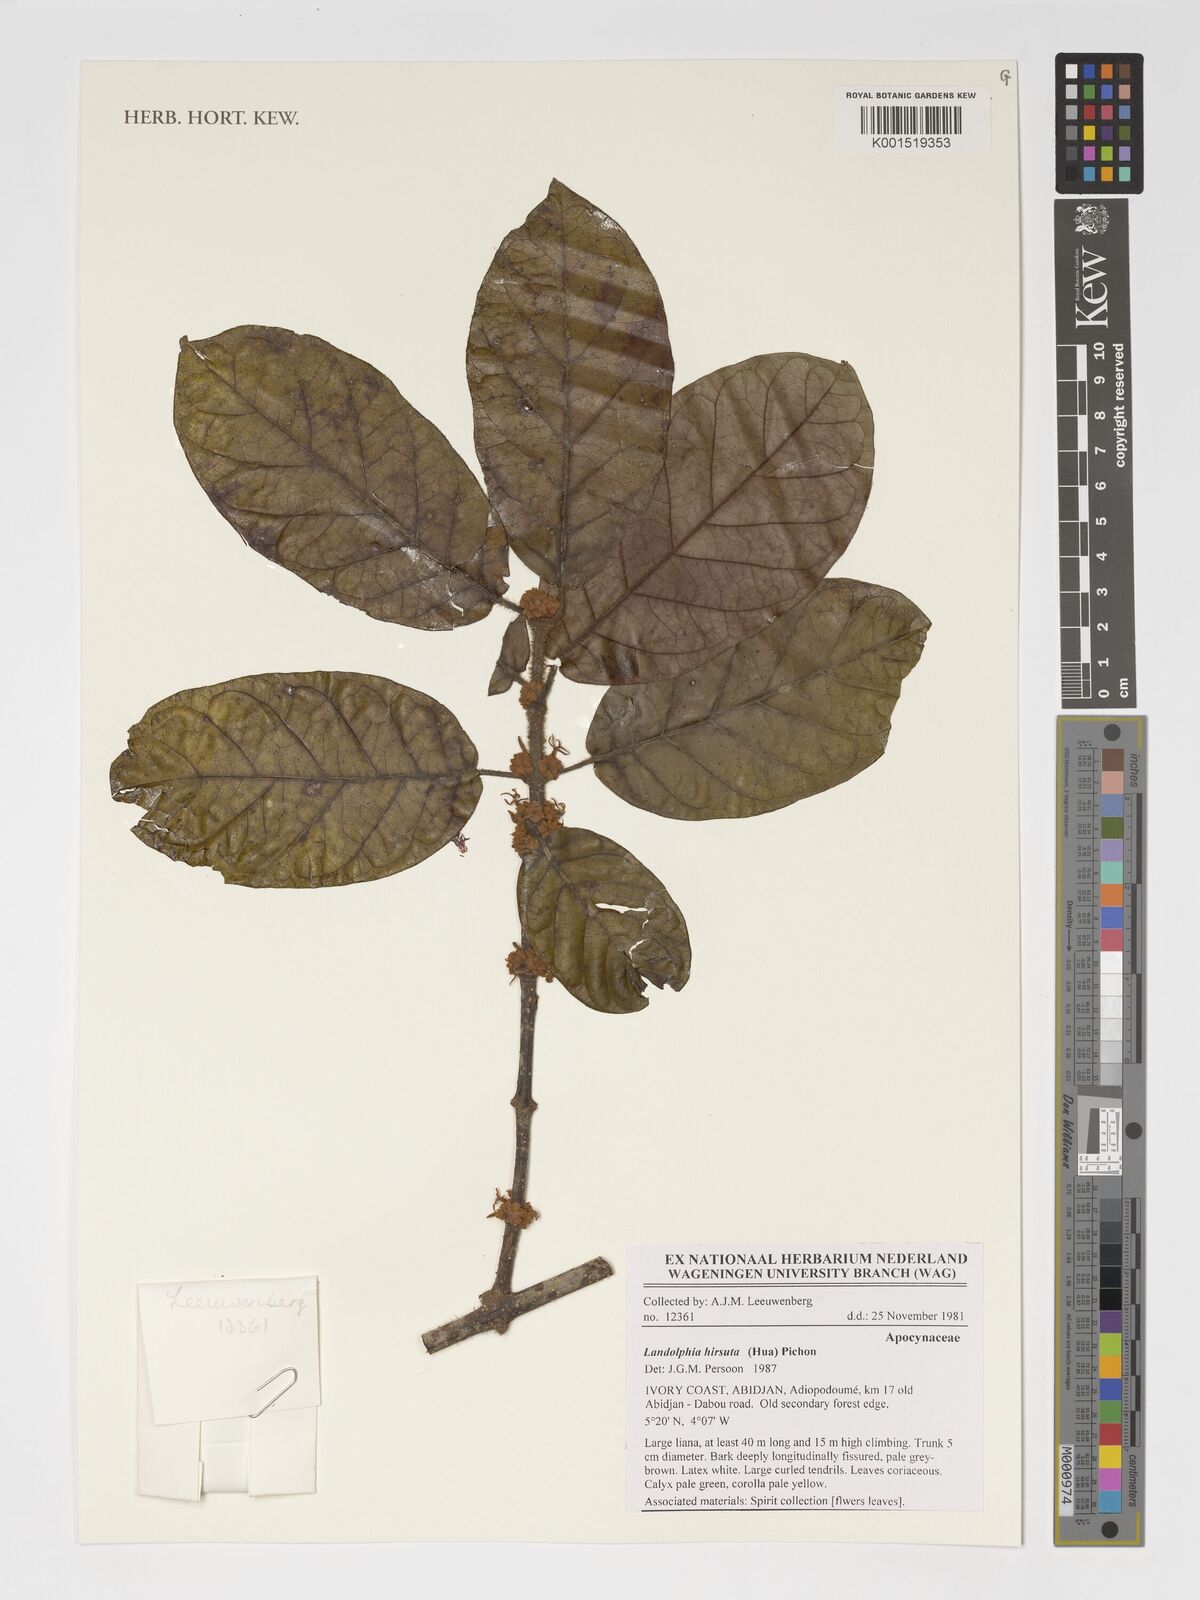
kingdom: Plantae
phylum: Tracheophyta
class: Magnoliopsida
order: Gentianales
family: Apocynaceae
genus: Landolphia
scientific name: Landolphia hirsuta
